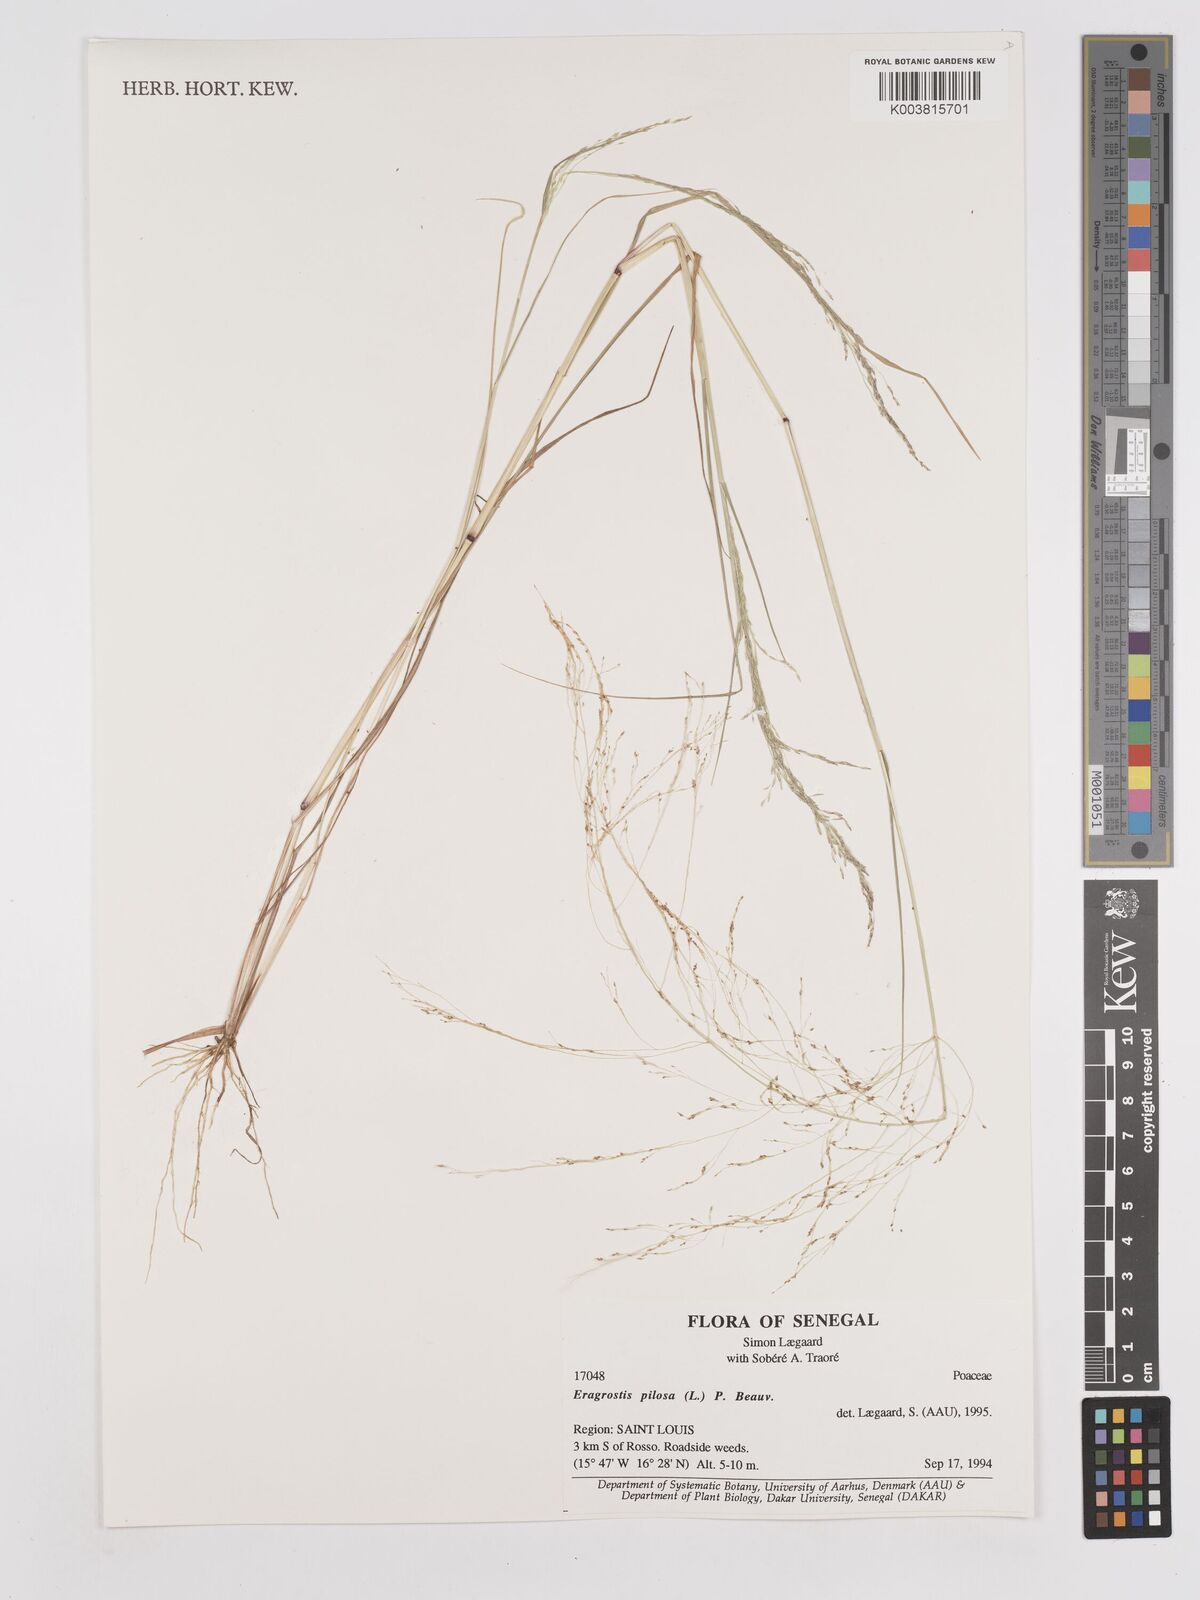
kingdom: Plantae
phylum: Tracheophyta
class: Liliopsida
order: Poales
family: Poaceae
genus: Eragrostis
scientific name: Eragrostis pilosa
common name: Indian lovegrass
